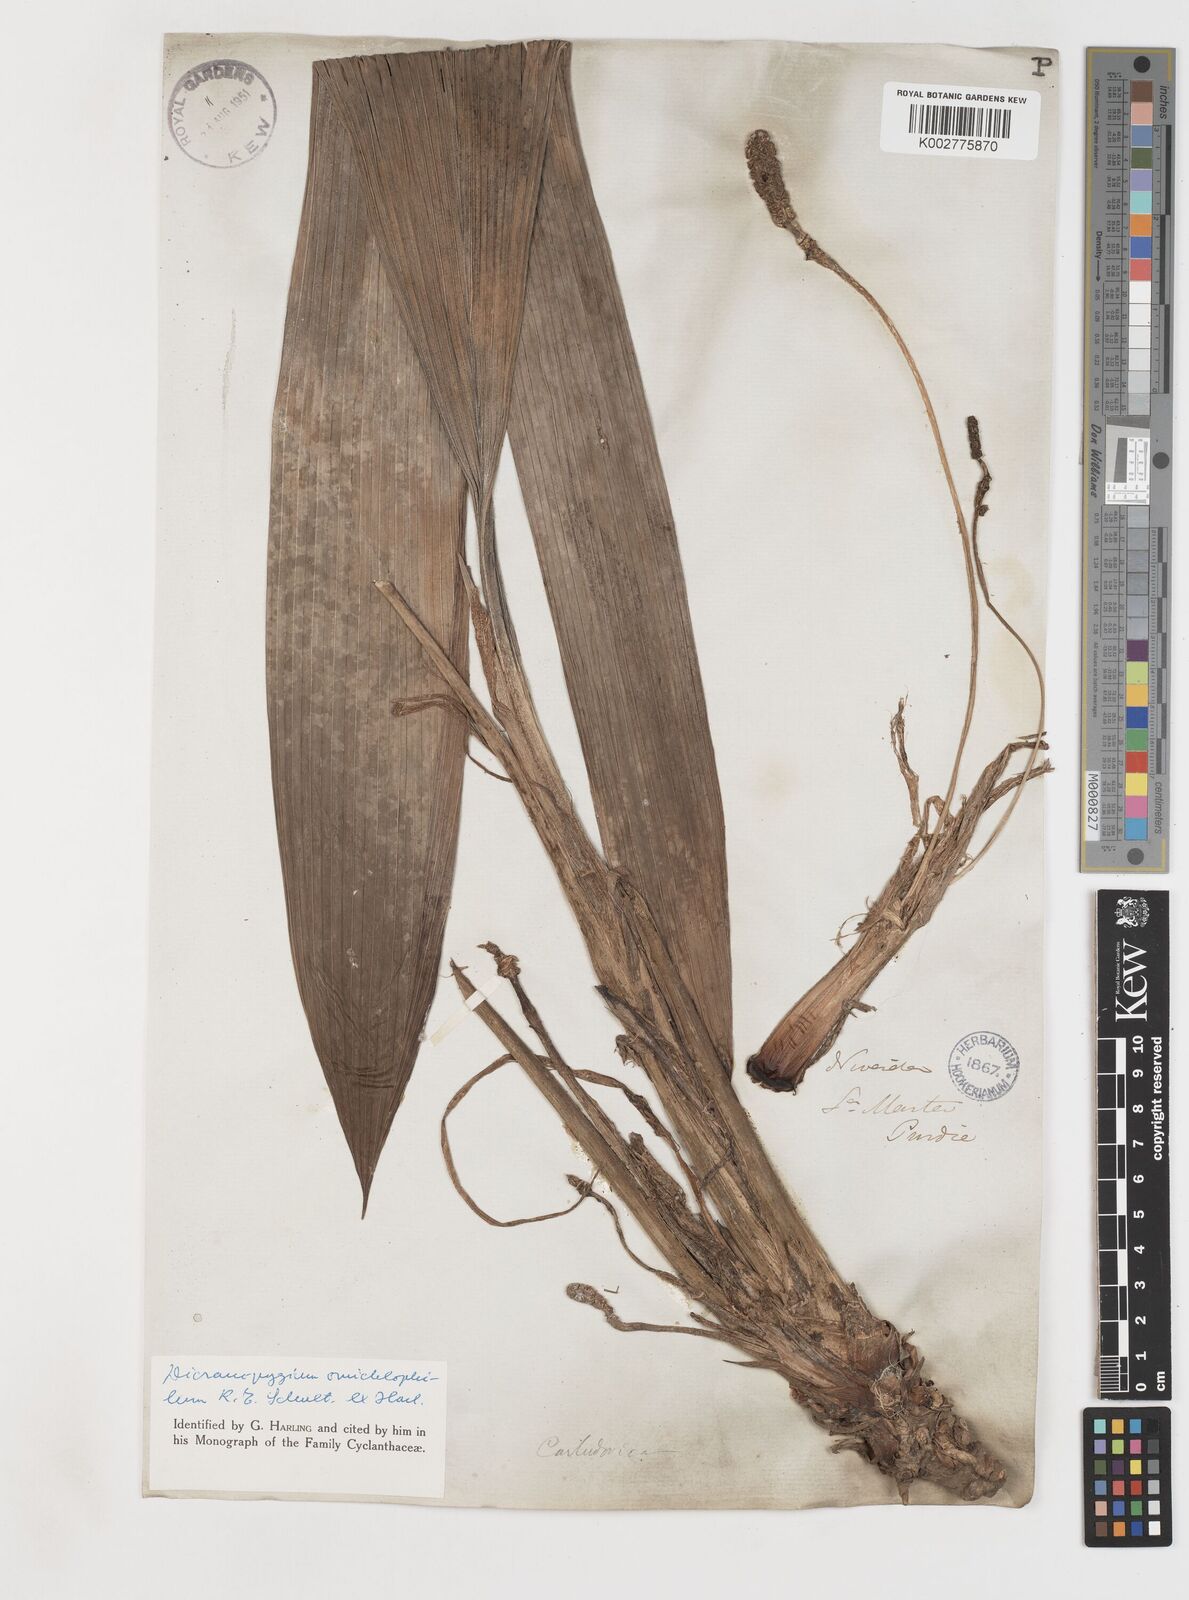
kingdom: Plantae
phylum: Tracheophyta
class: Liliopsida
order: Pandanales
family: Cyclanthaceae
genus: Dicranopygium
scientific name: Dicranopygium omichlophilum
